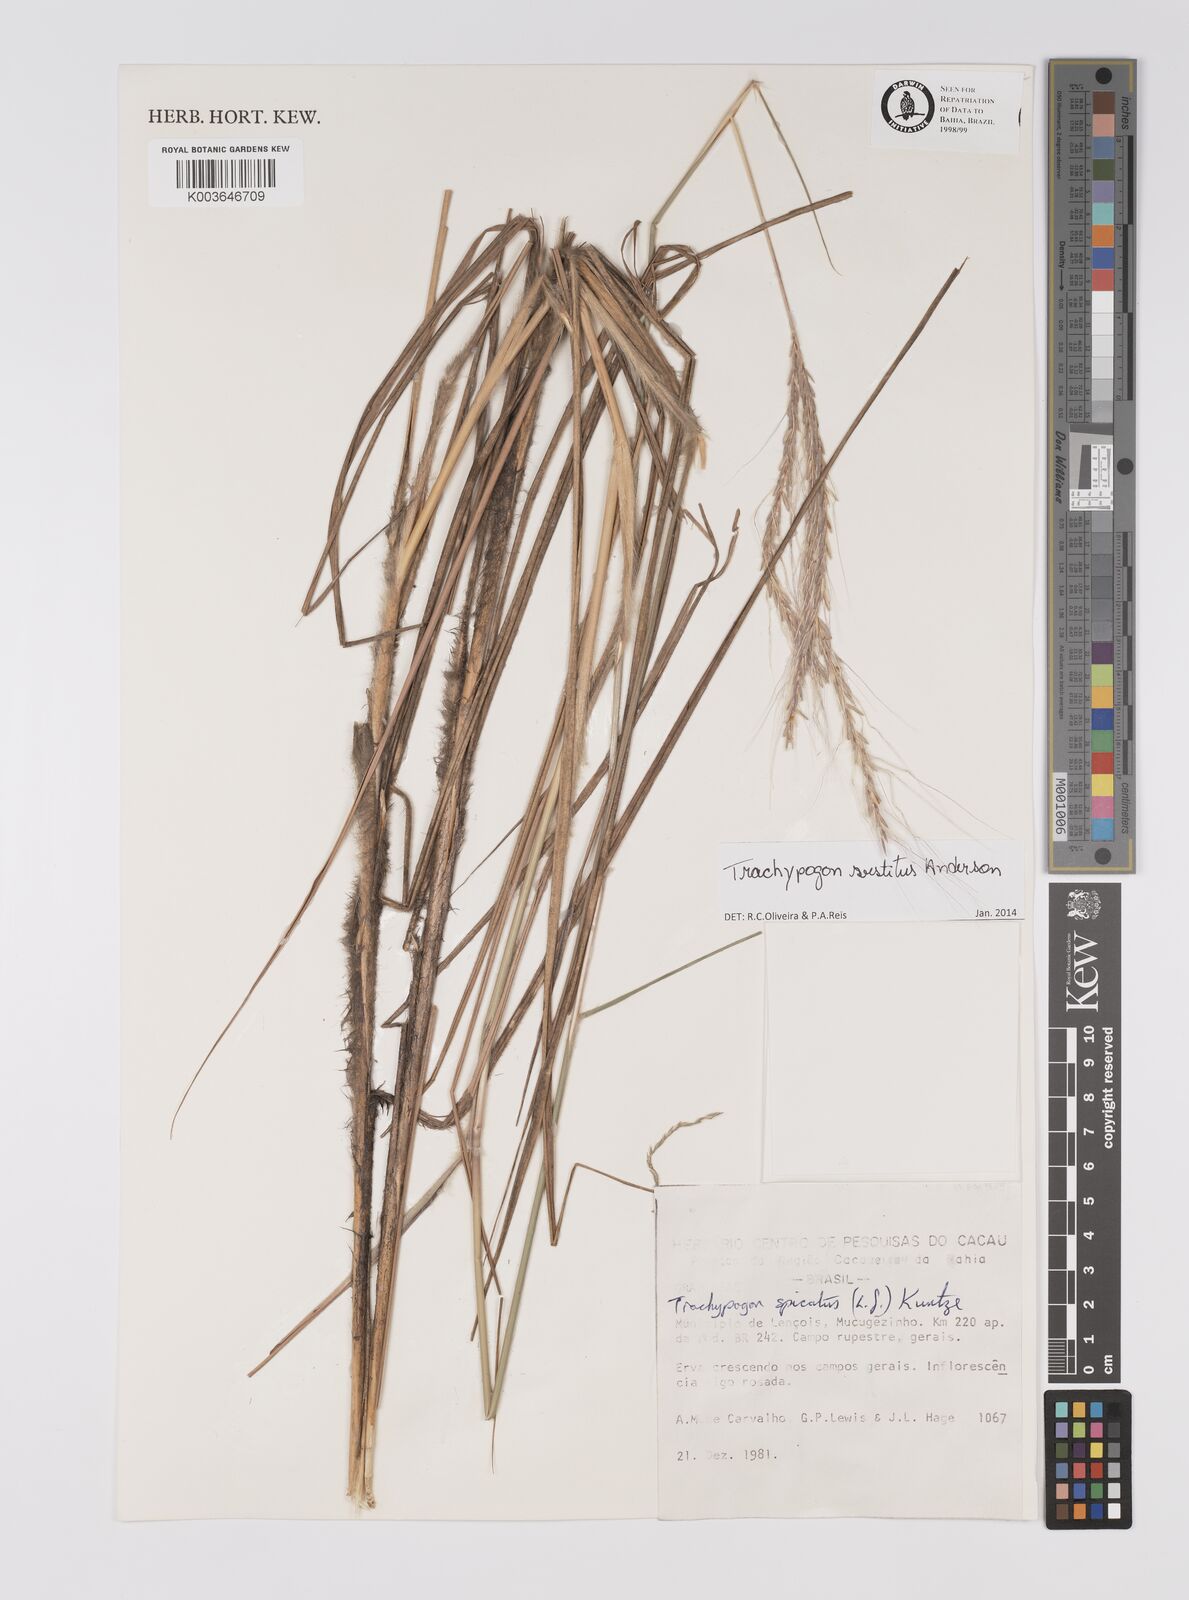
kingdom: Plantae
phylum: Tracheophyta
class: Liliopsida
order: Poales
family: Poaceae
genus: Trachypogon
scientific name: Trachypogon vestitus
